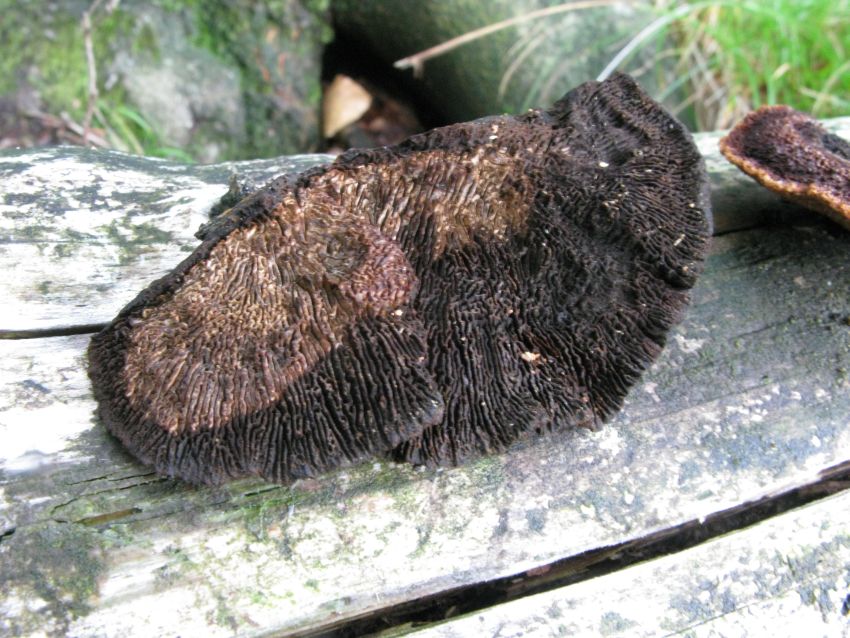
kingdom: Fungi
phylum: Basidiomycota
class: Agaricomycetes
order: Gloeophyllales
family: Gloeophyllaceae
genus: Gloeophyllum
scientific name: Gloeophyllum sepiarium
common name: fyrre-korkhat
